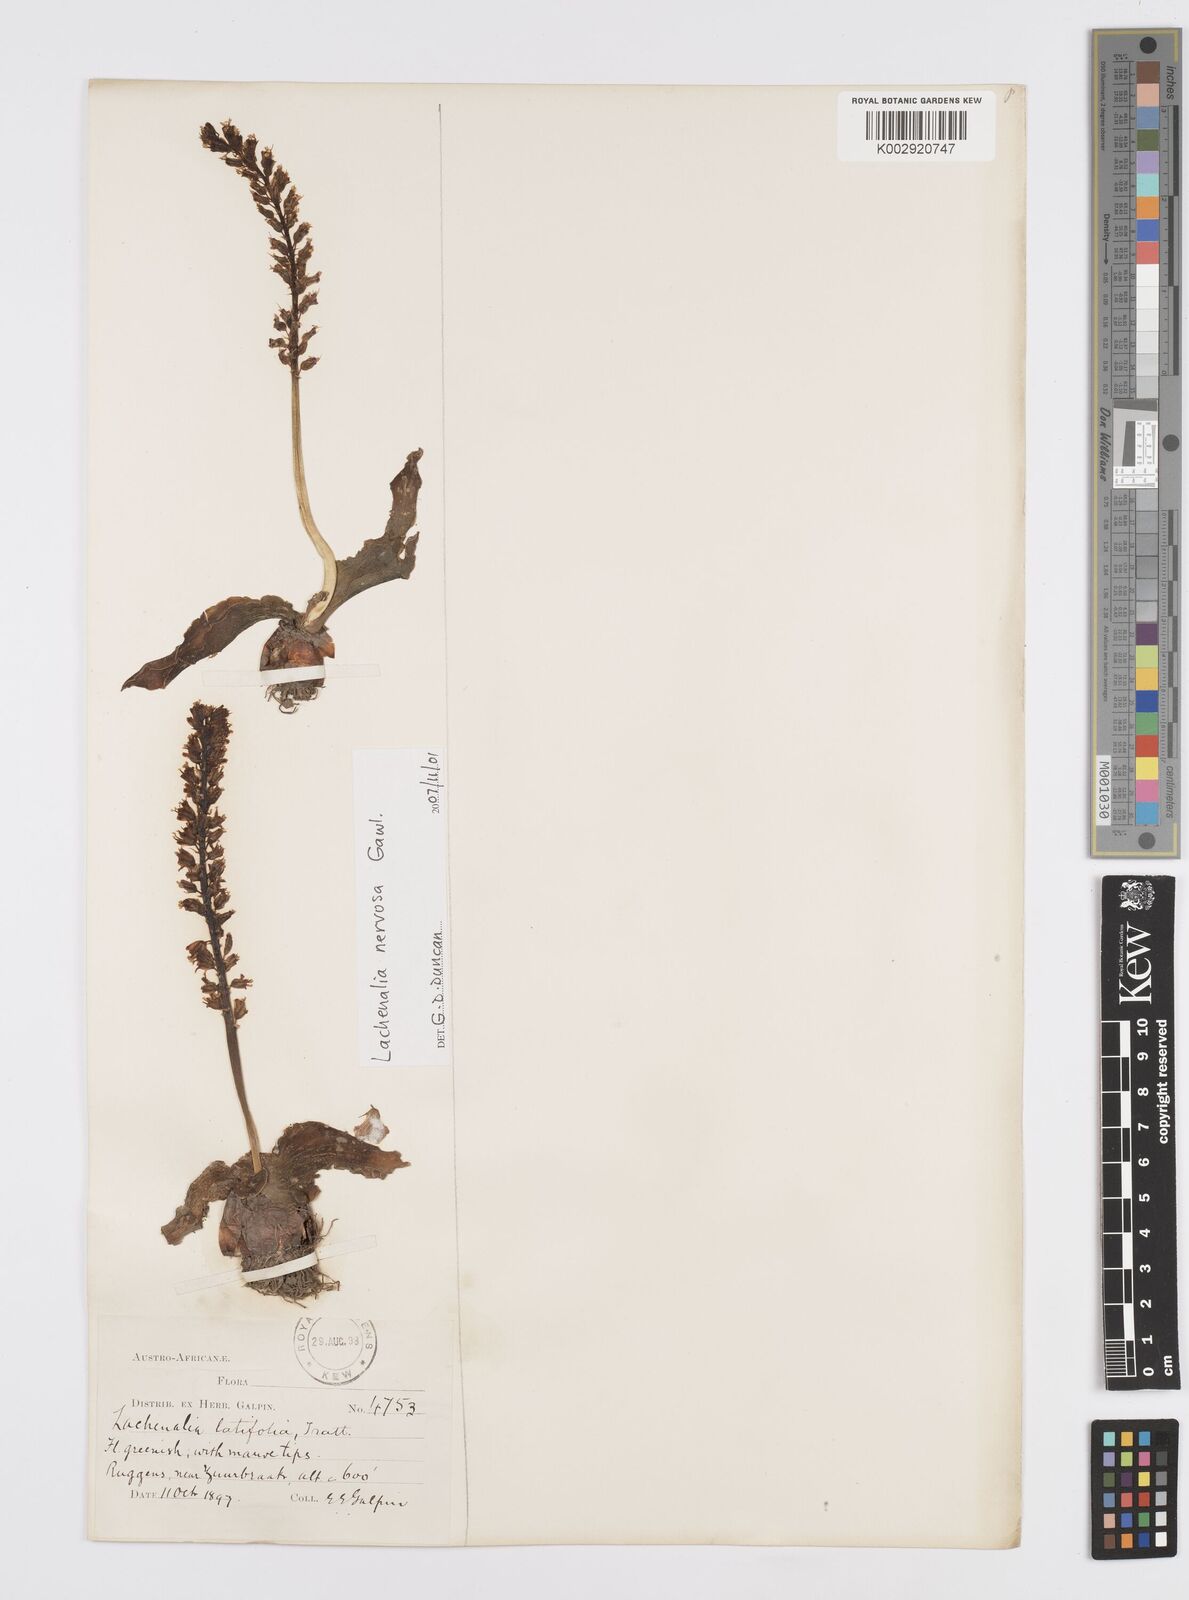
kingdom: Plantae
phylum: Tracheophyta
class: Liliopsida
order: Asparagales
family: Asparagaceae
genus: Lachenalia
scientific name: Lachenalia nervosa
